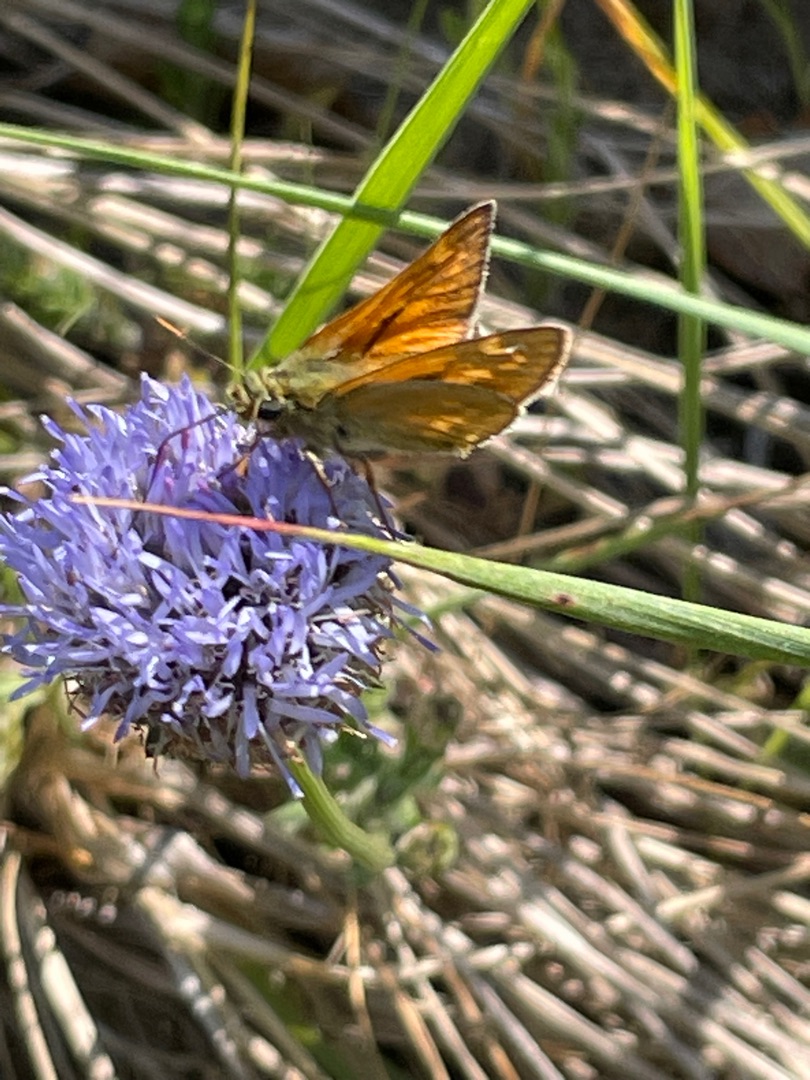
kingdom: Animalia
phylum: Arthropoda
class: Insecta
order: Lepidoptera
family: Hesperiidae
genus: Ochlodes
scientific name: Ochlodes venata
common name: Stor bredpande
